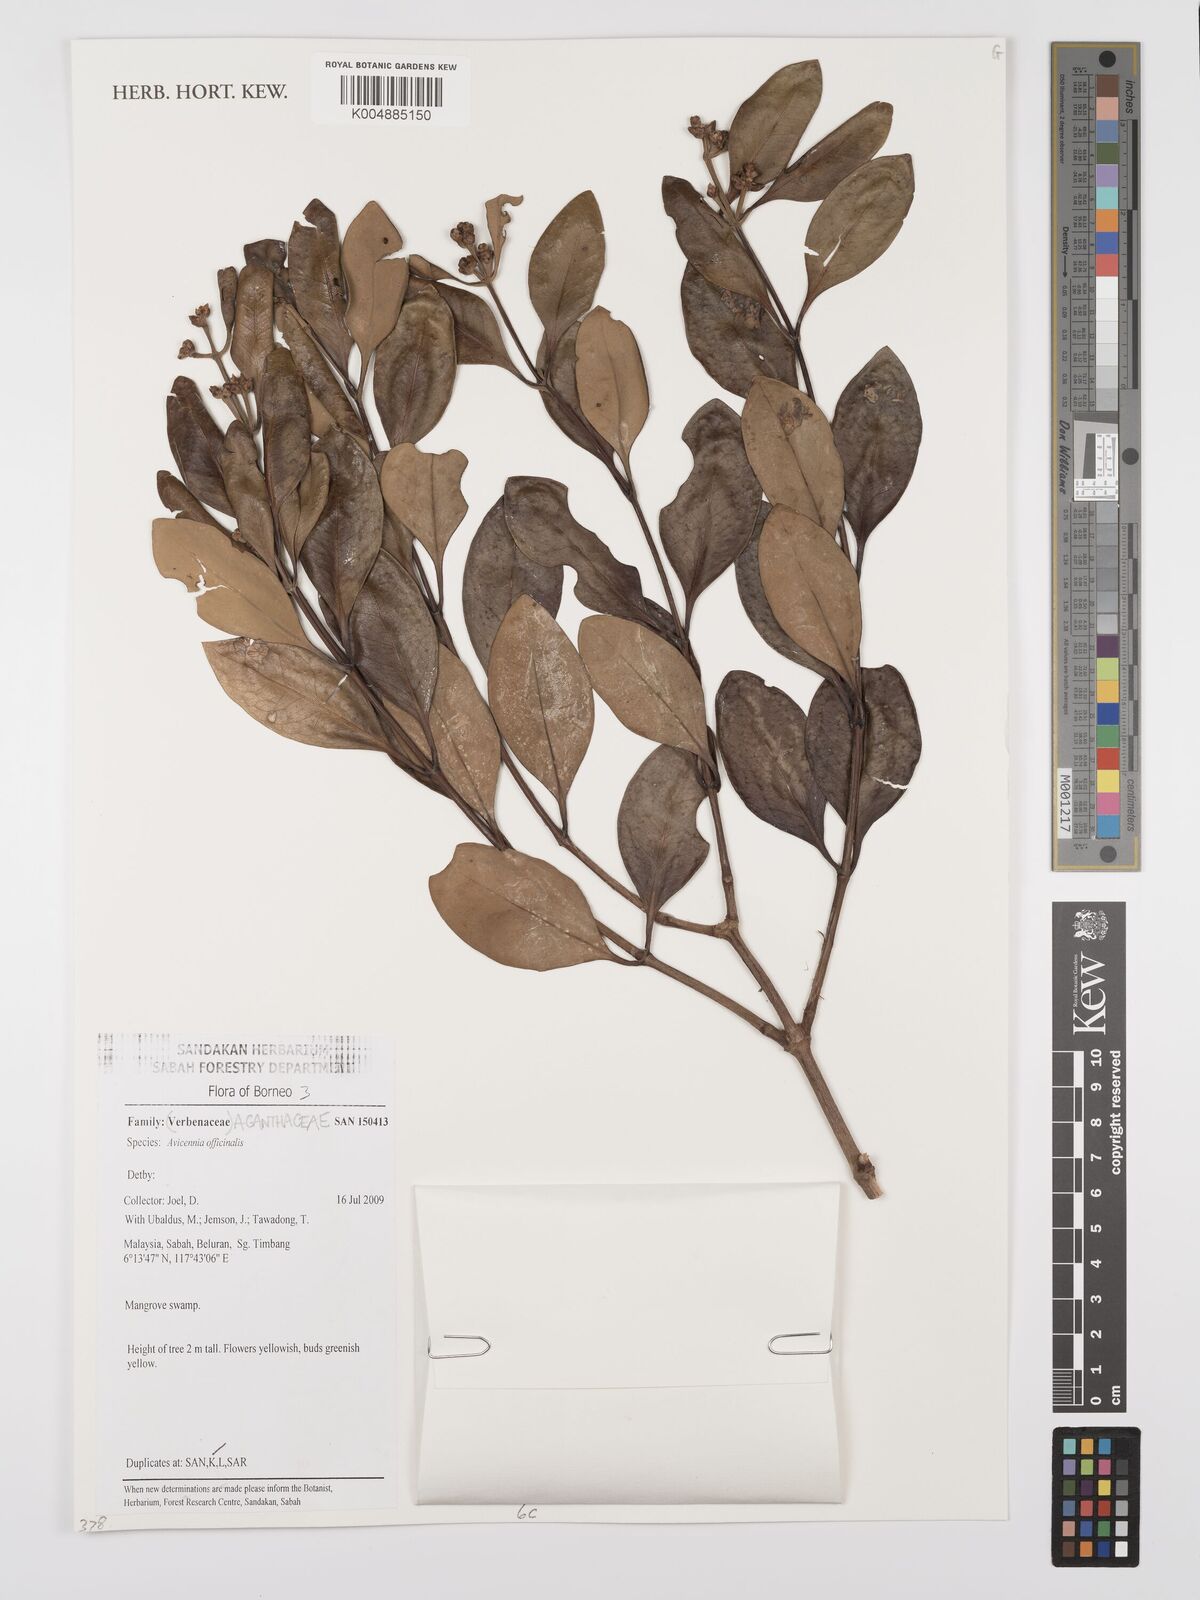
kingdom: Plantae
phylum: Tracheophyta
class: Magnoliopsida
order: Lamiales
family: Acanthaceae
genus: Avicennia
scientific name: Avicennia officinalis
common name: Baen
